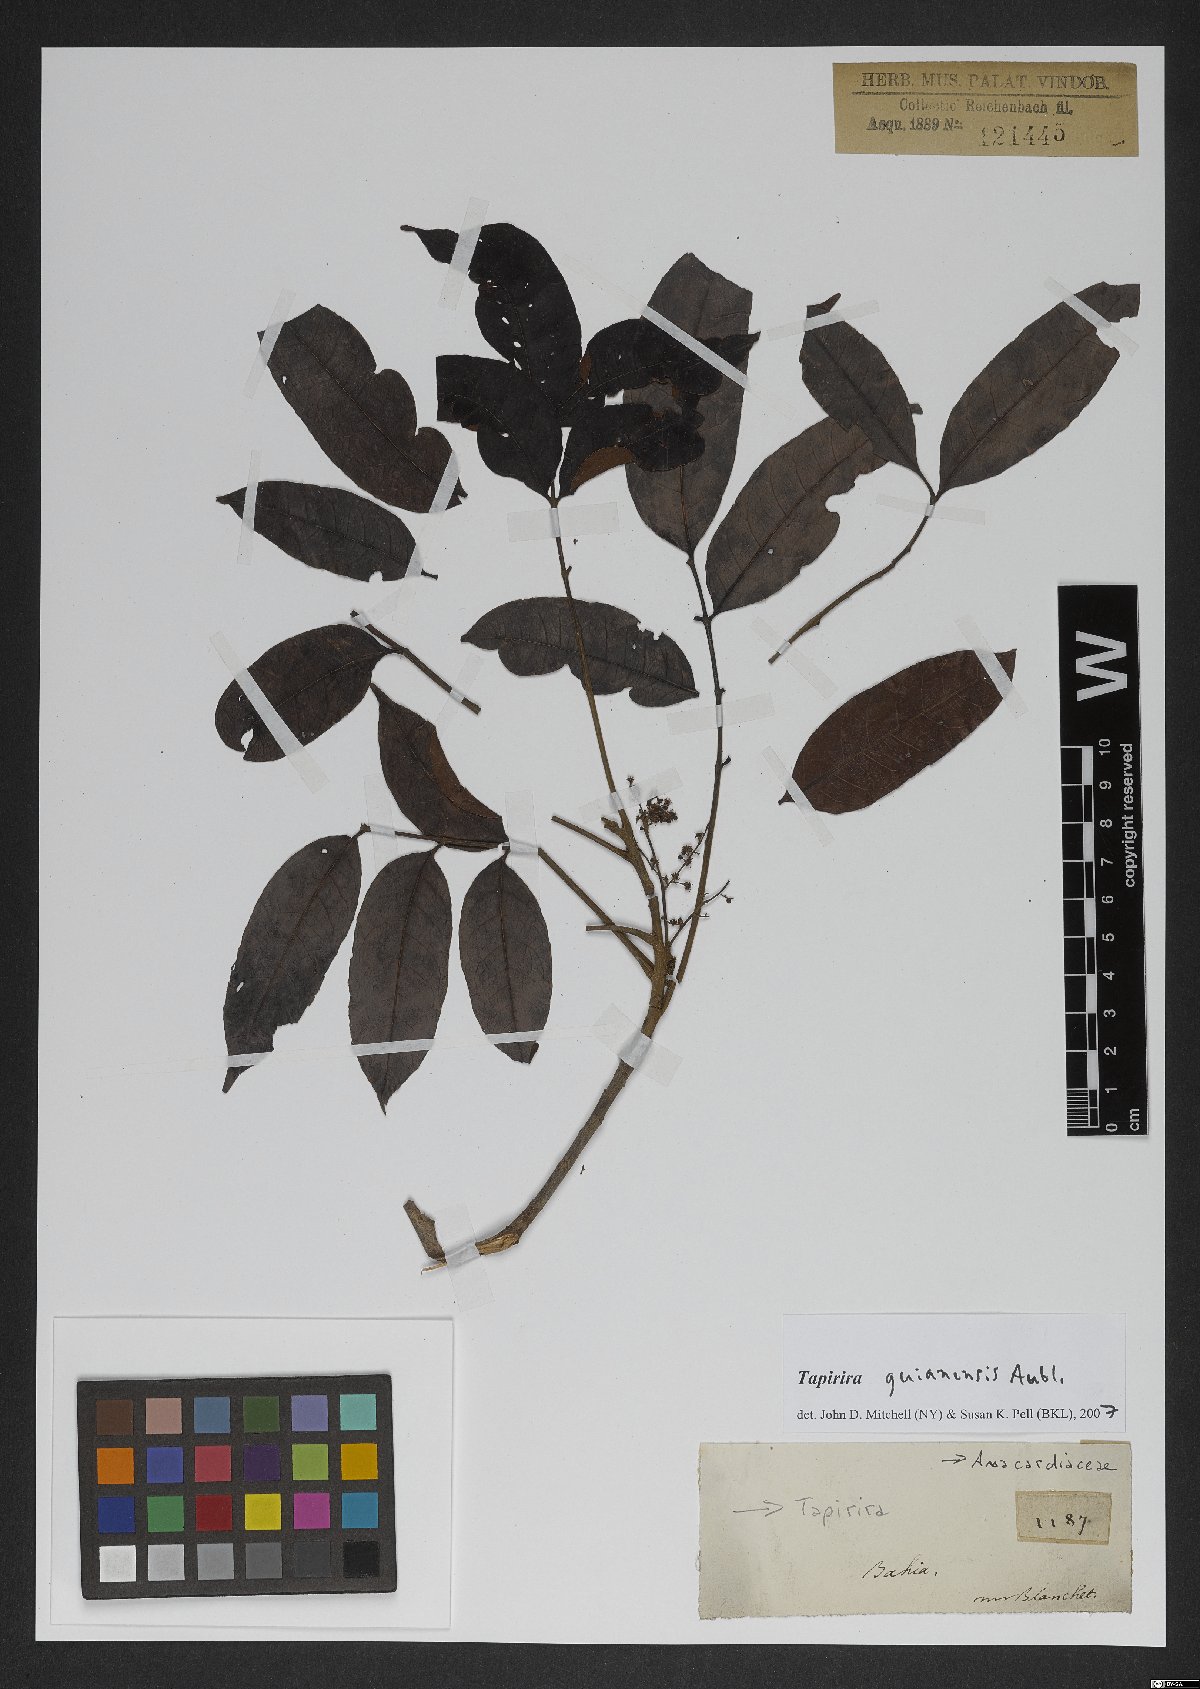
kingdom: Plantae
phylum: Tracheophyta
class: Magnoliopsida
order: Sapindales
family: Anacardiaceae
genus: Tapirira
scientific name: Tapirira guianensis
